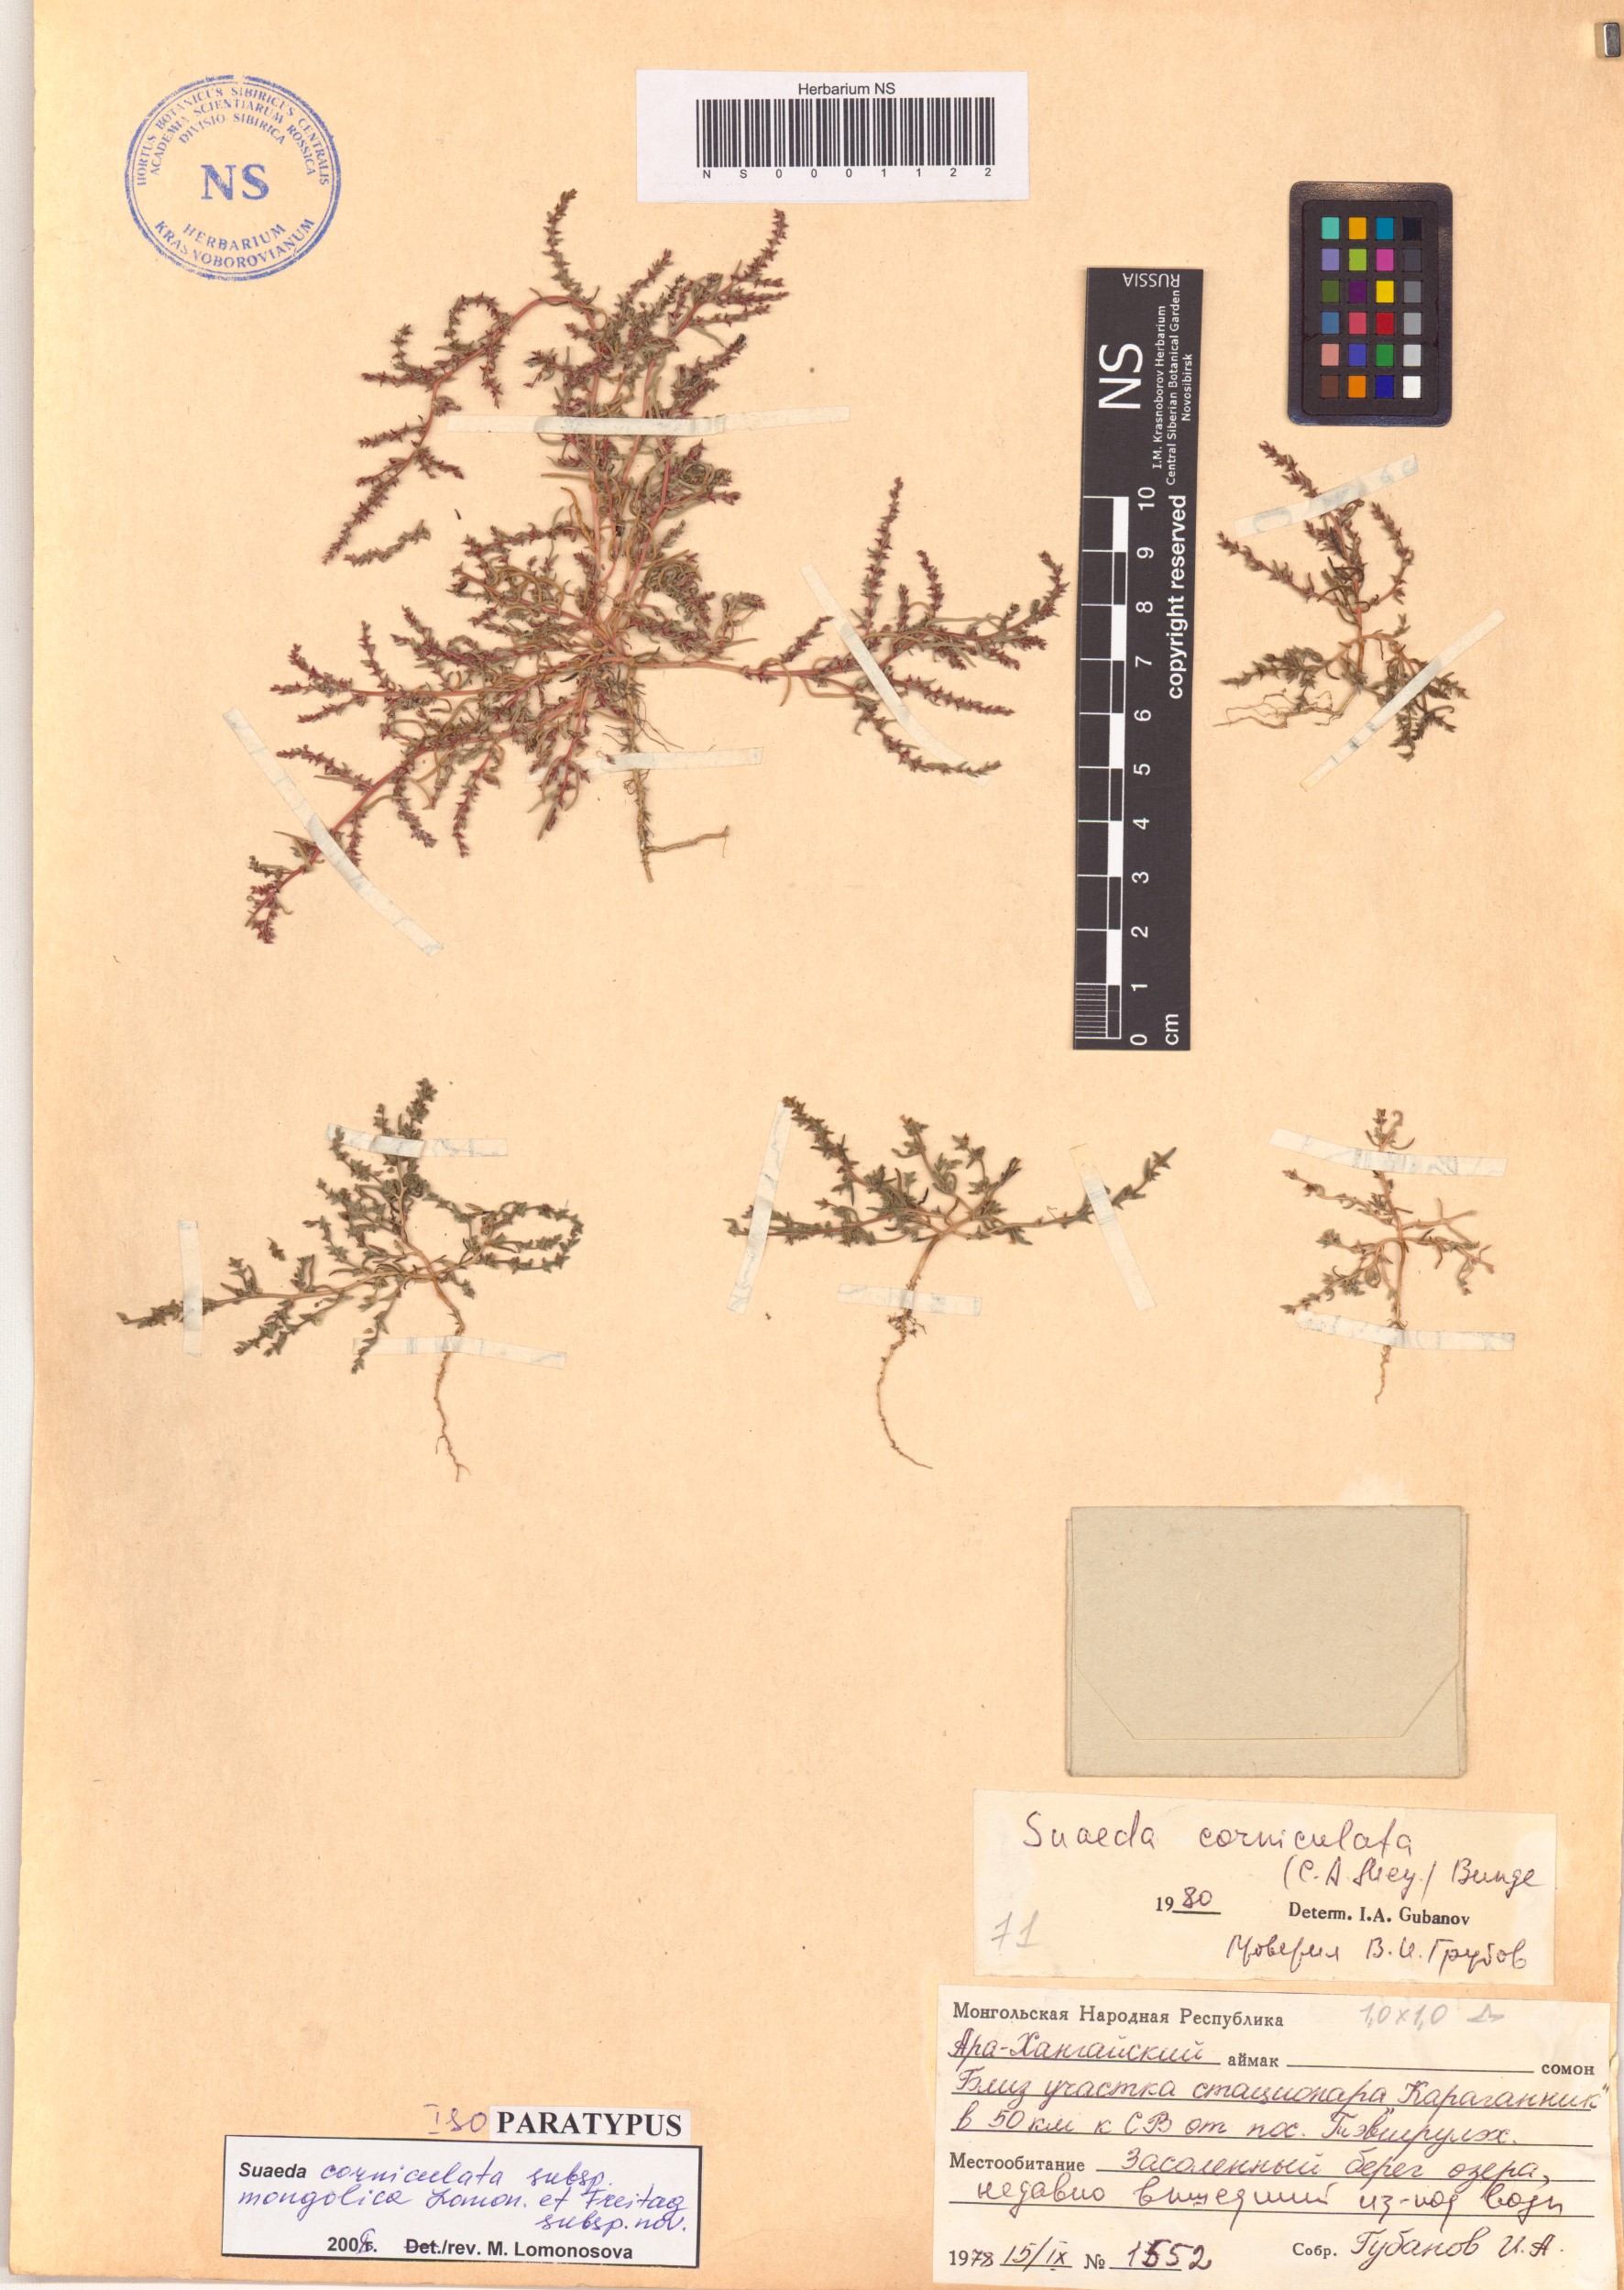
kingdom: Plantae
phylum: Tracheophyta
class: Magnoliopsida
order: Caryophyllales
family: Amaranthaceae
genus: Suaeda
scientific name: Suaeda corniculata
